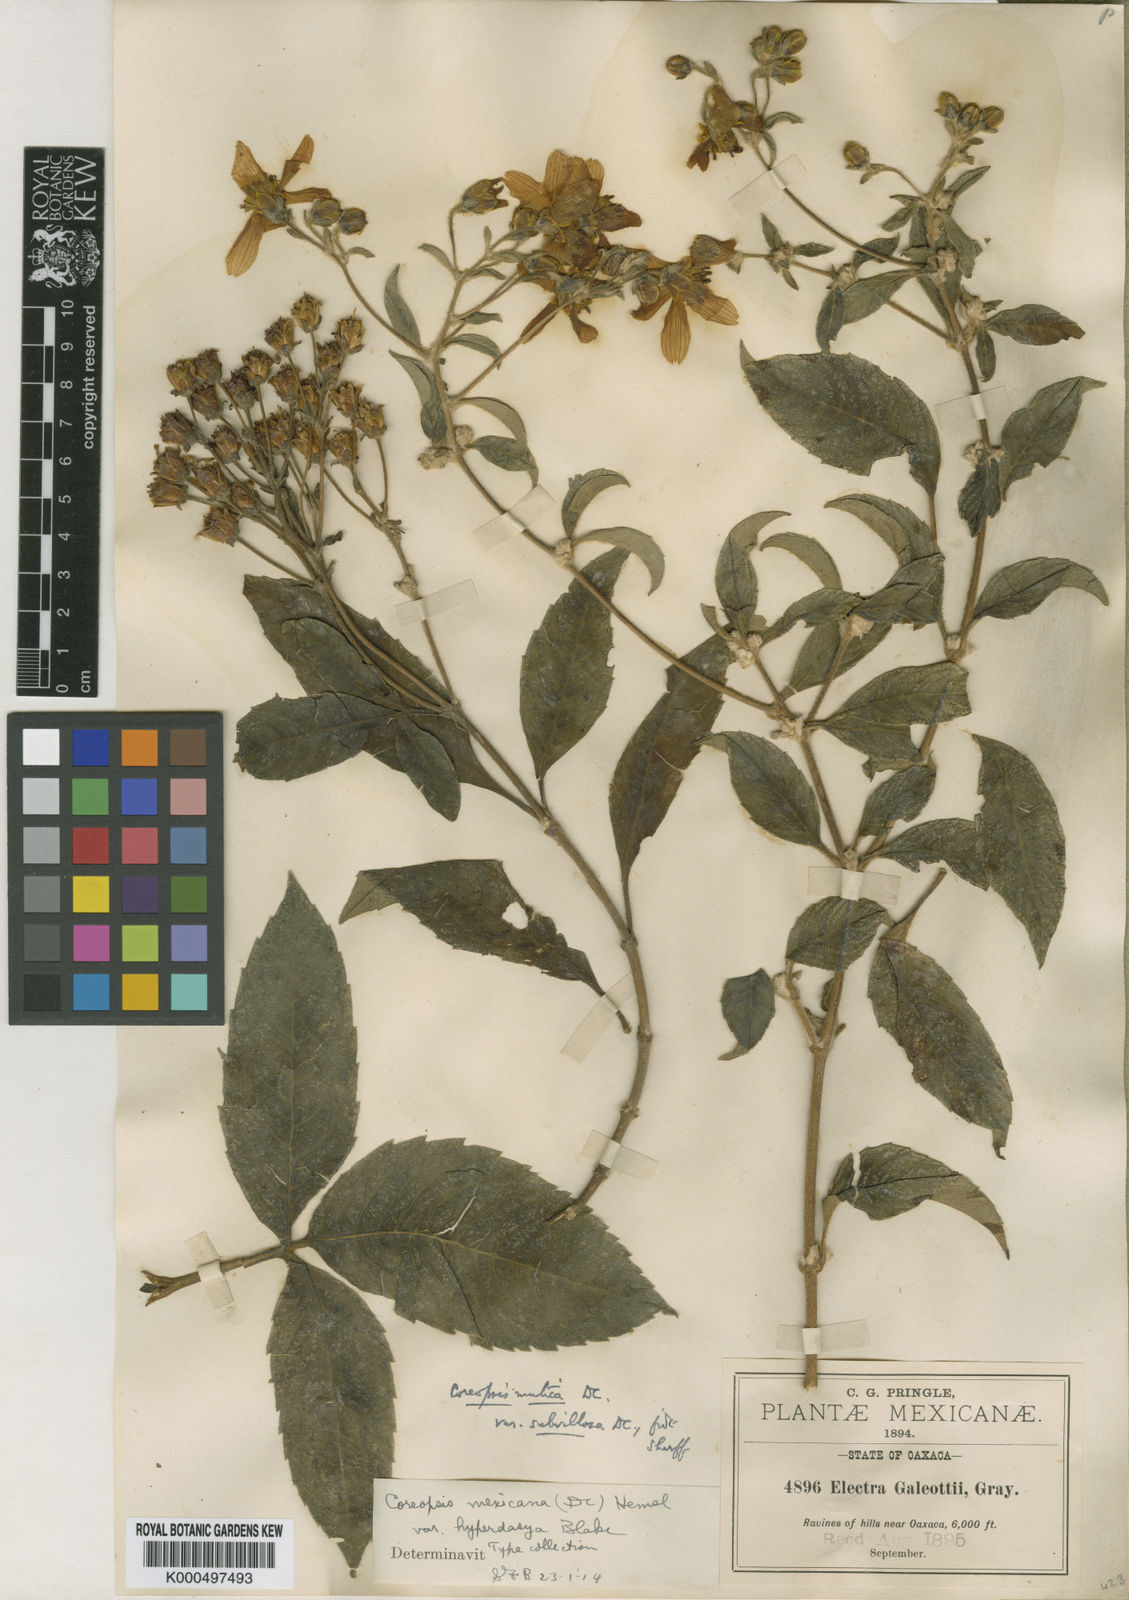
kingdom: Plantae
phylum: Tracheophyta
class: Magnoliopsida
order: Asterales
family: Asteraceae
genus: Electranthera
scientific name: Electranthera mutica
